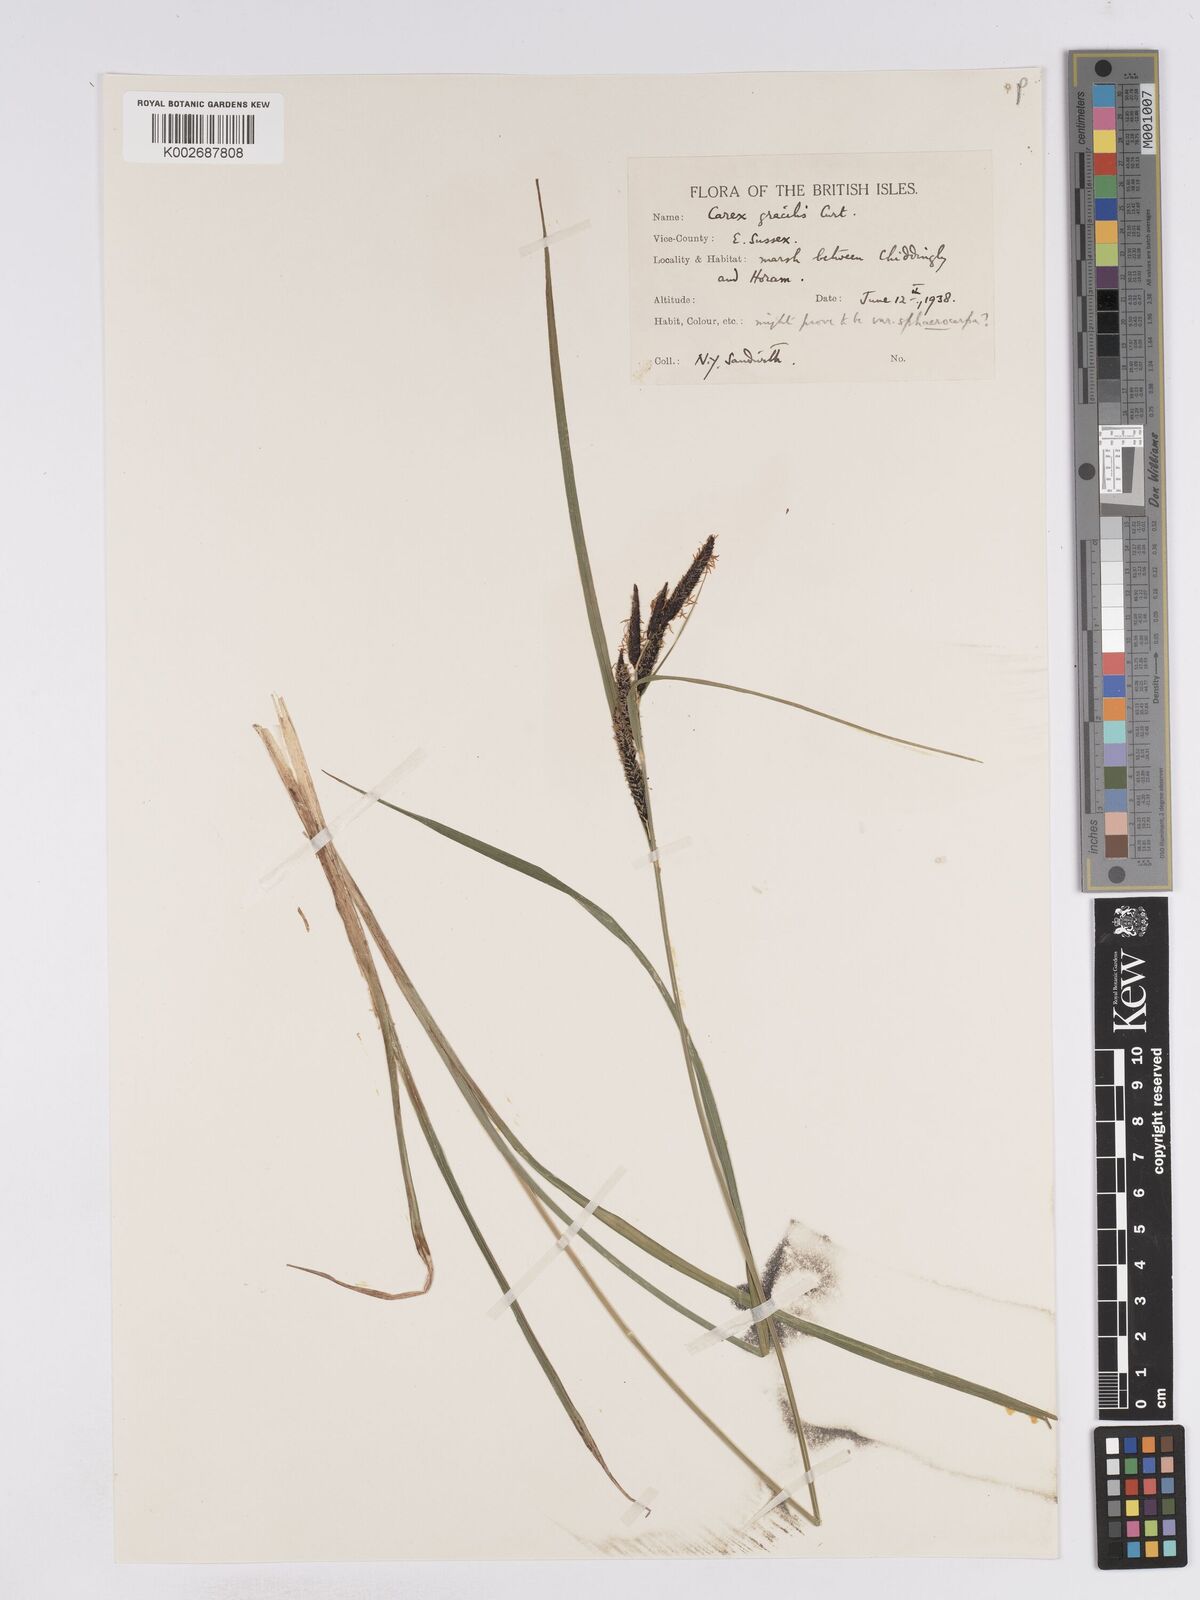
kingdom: Plantae
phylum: Tracheophyta
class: Liliopsida
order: Poales
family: Cyperaceae
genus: Carex
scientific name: Carex acuta
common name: Slender tufted-sedge
